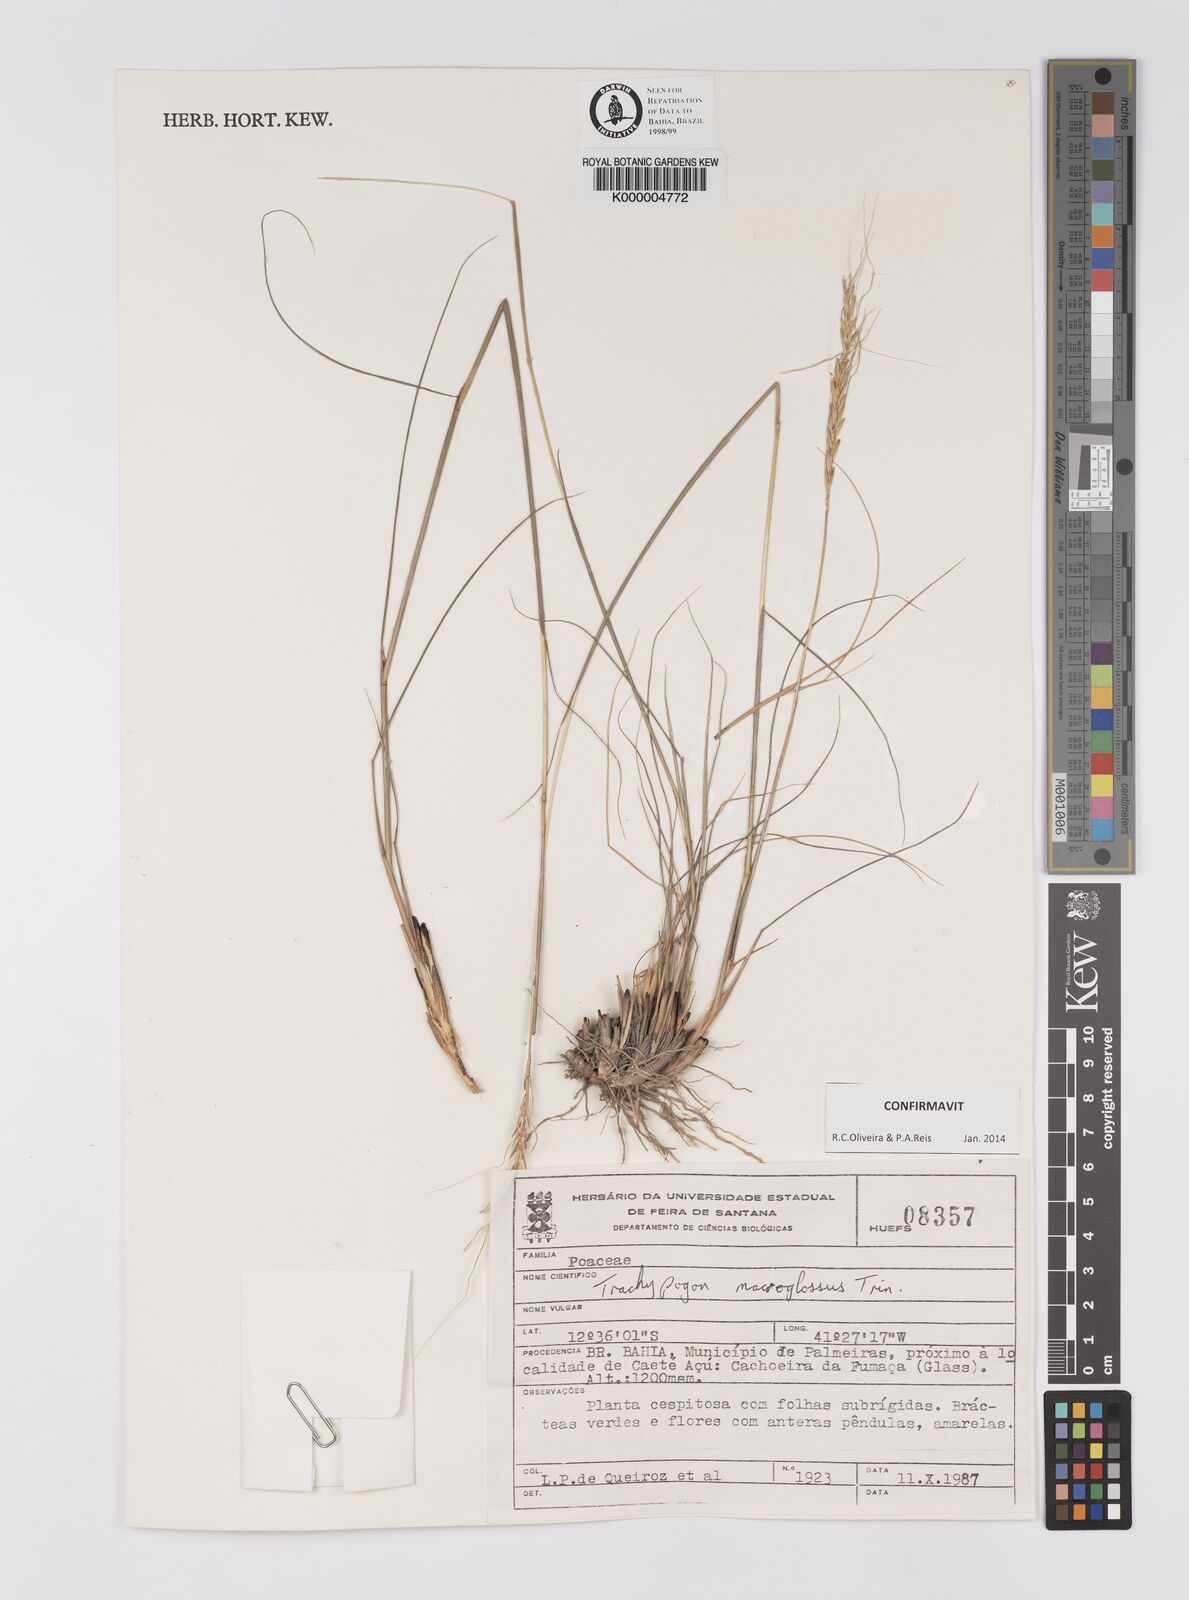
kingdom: Plantae
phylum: Tracheophyta
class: Liliopsida
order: Poales
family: Poaceae
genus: Trachypogon
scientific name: Trachypogon macroglossus
